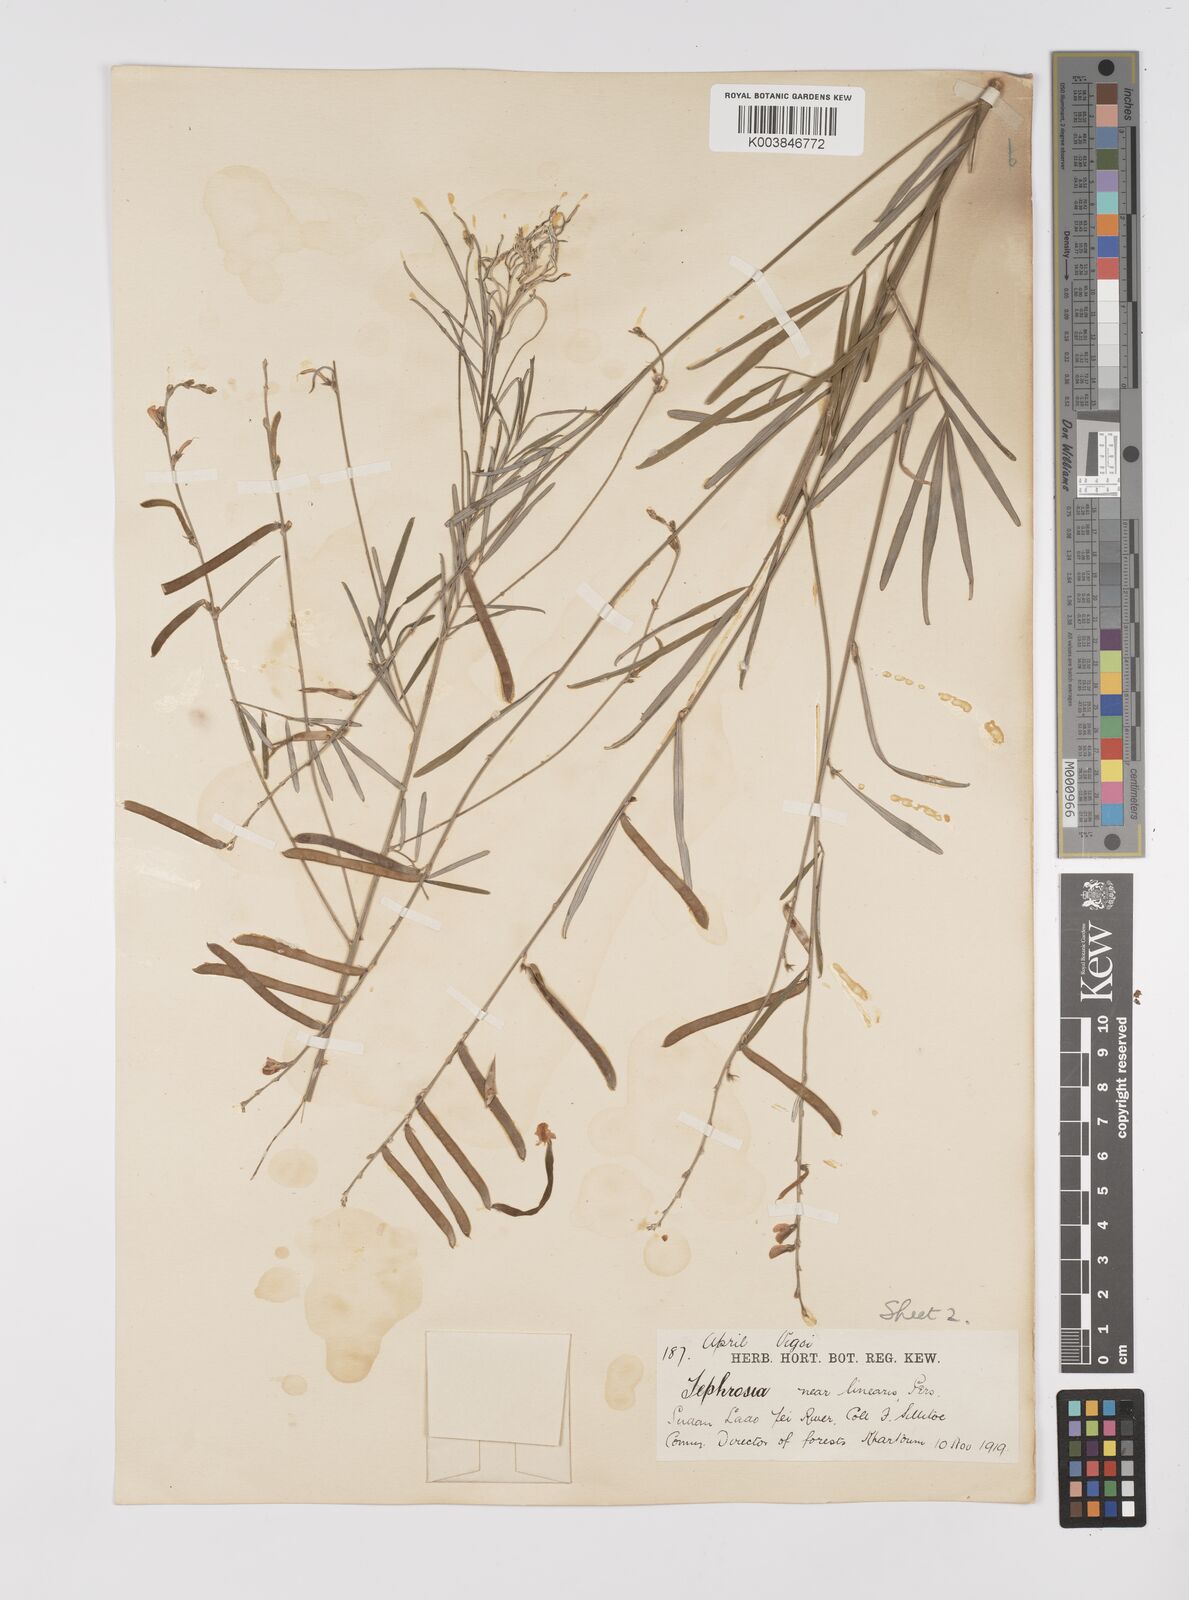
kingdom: Plantae
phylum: Tracheophyta
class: Magnoliopsida
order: Fabales
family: Fabaceae
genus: Tephrosia
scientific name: Tephrosia linearis
